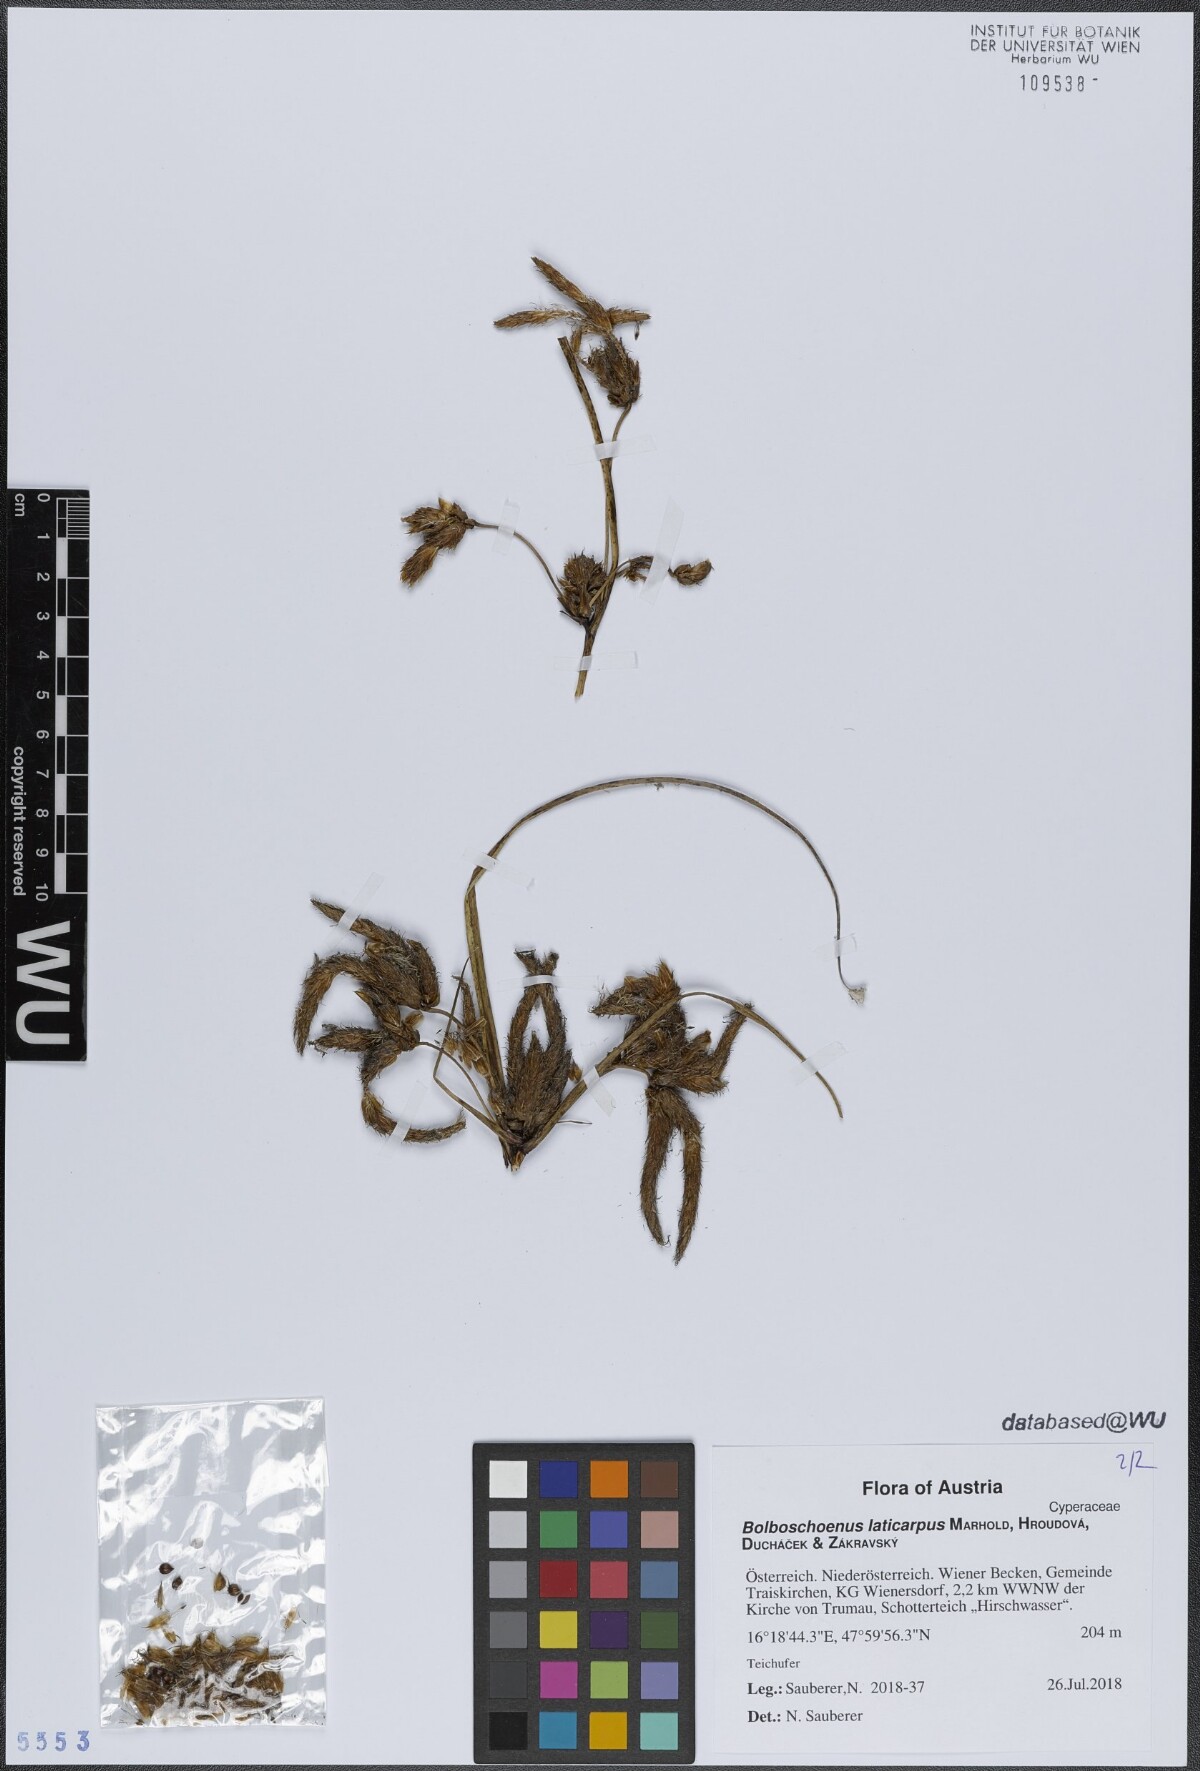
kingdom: Plantae
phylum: Tracheophyta
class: Liliopsida
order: Poales
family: Cyperaceae
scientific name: Cyperaceae
